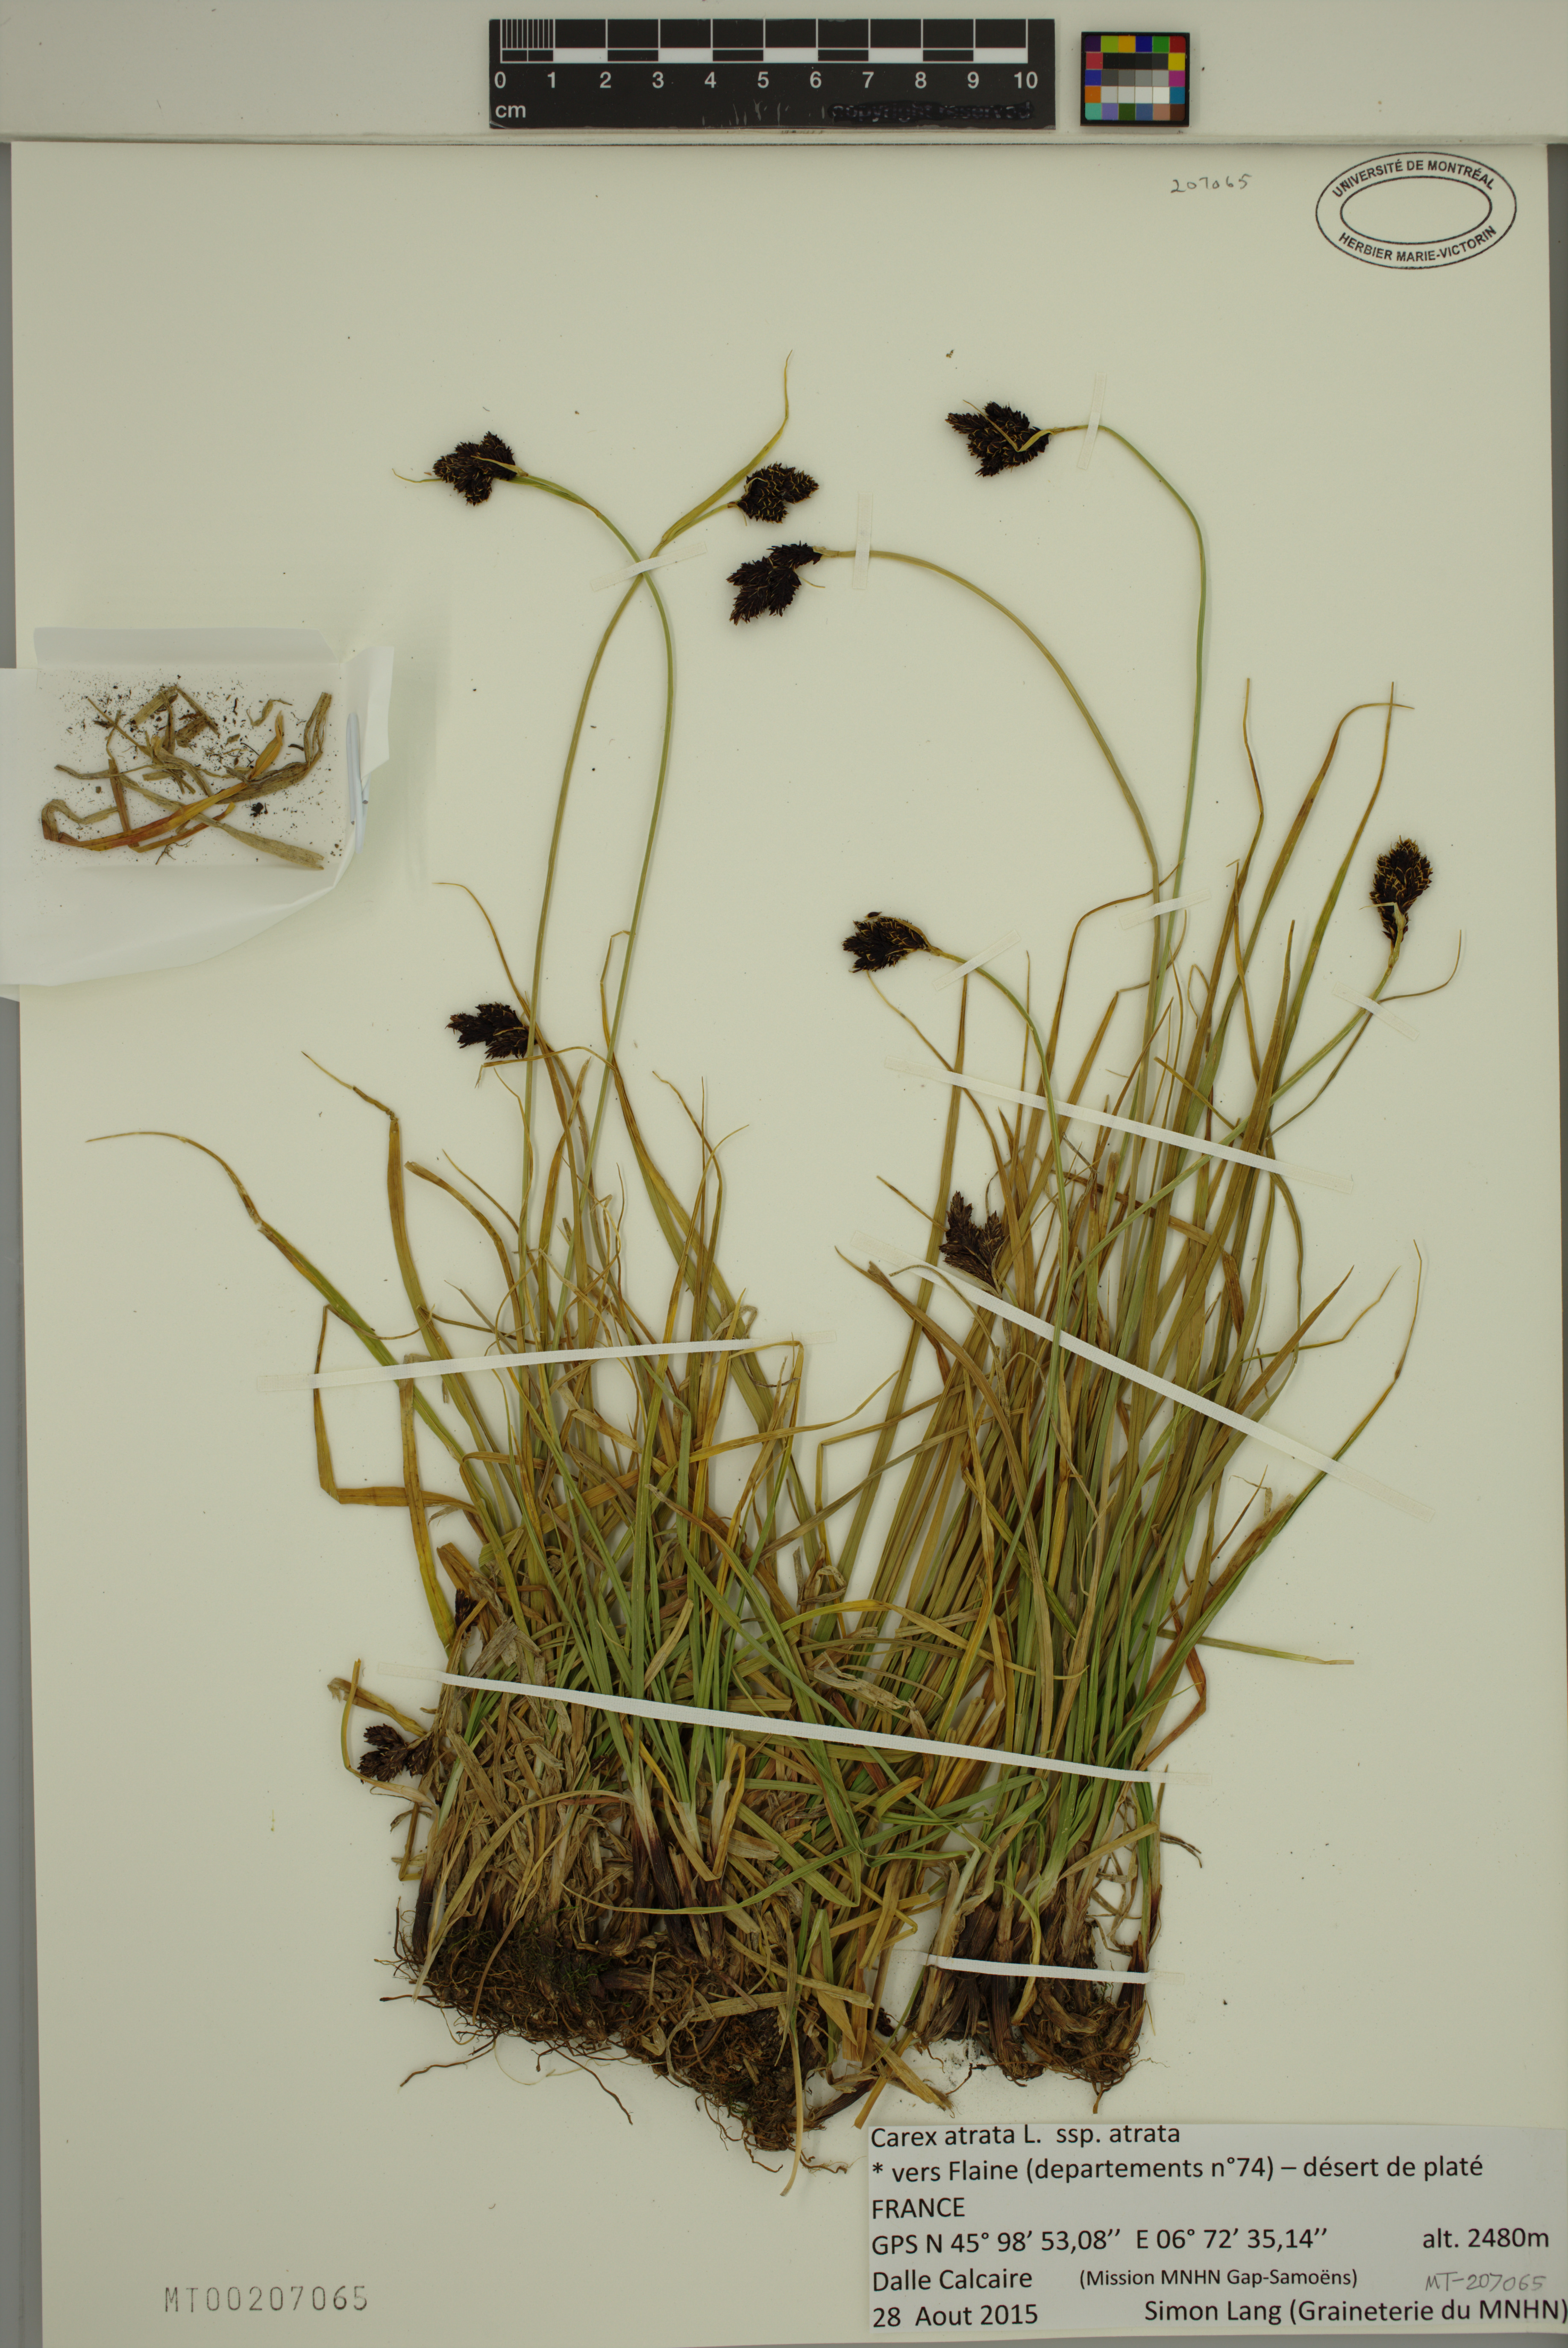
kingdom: Plantae
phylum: Tracheophyta
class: Liliopsida
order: Poales
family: Cyperaceae
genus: Carex
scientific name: Carex atrata
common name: Black alpine sedge
